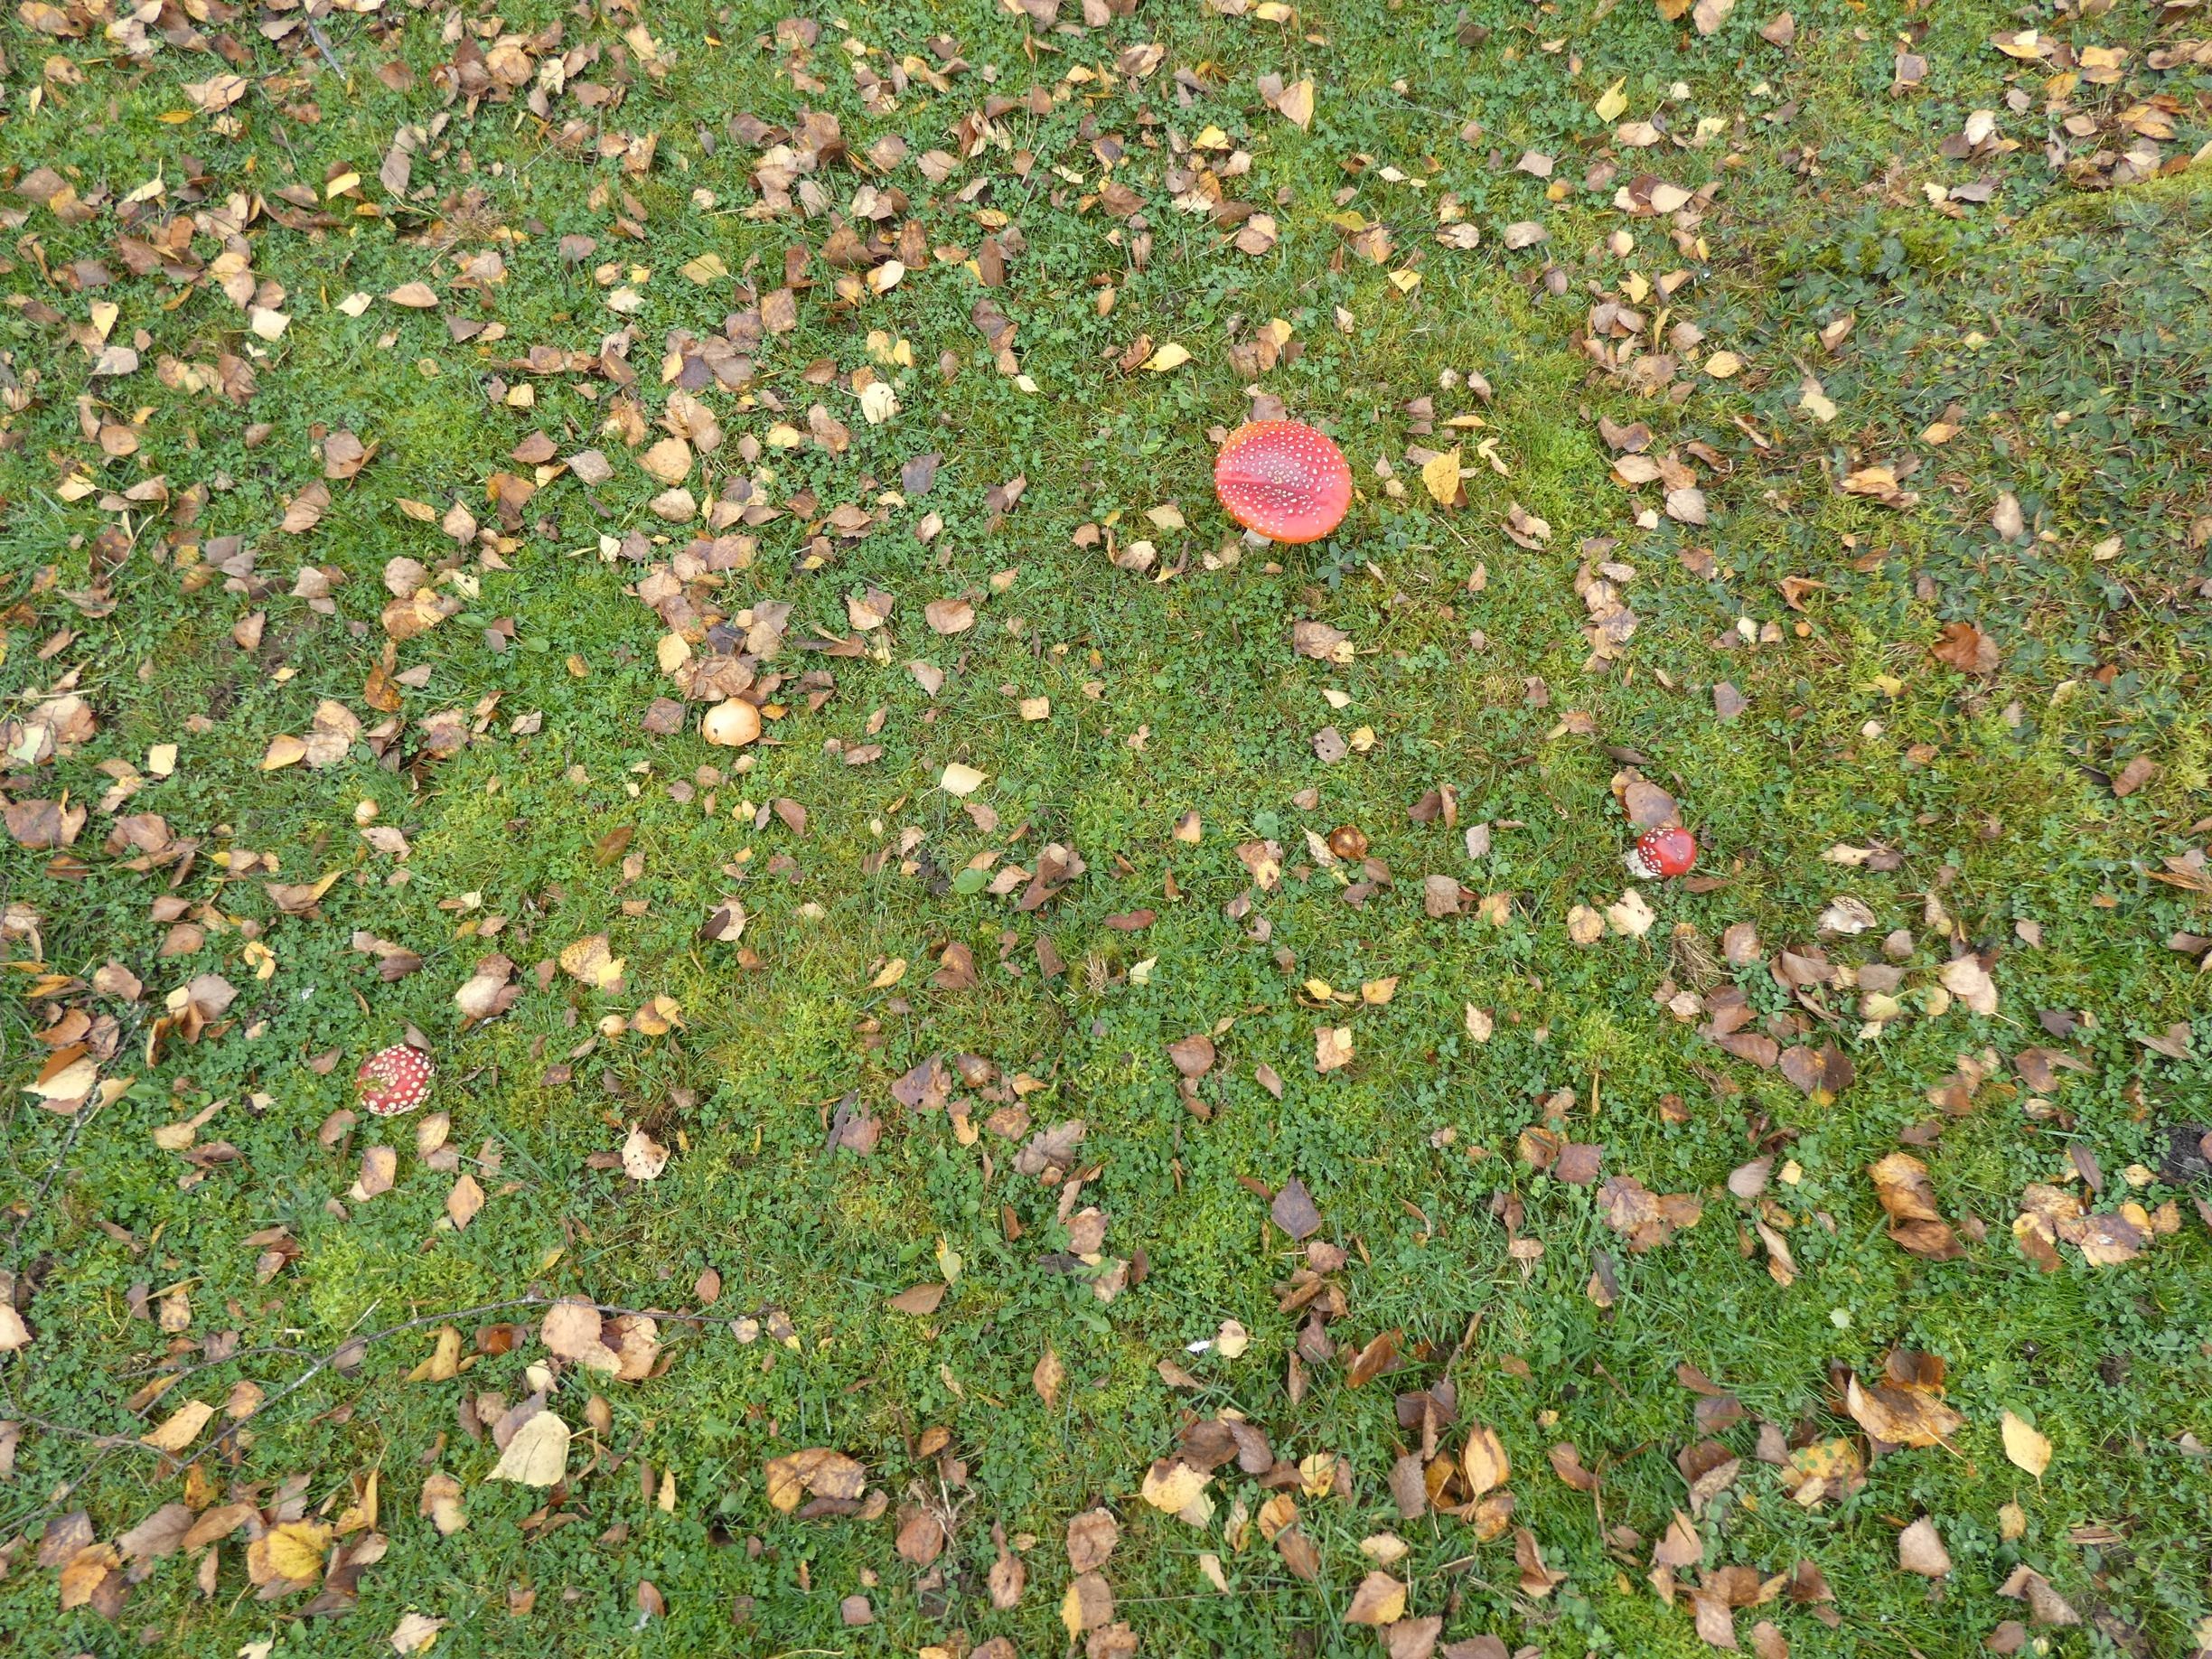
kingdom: Fungi
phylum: Basidiomycota
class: Agaricomycetes
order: Agaricales
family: Amanitaceae
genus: Amanita
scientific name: Amanita muscaria
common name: Rød fluesvamp
